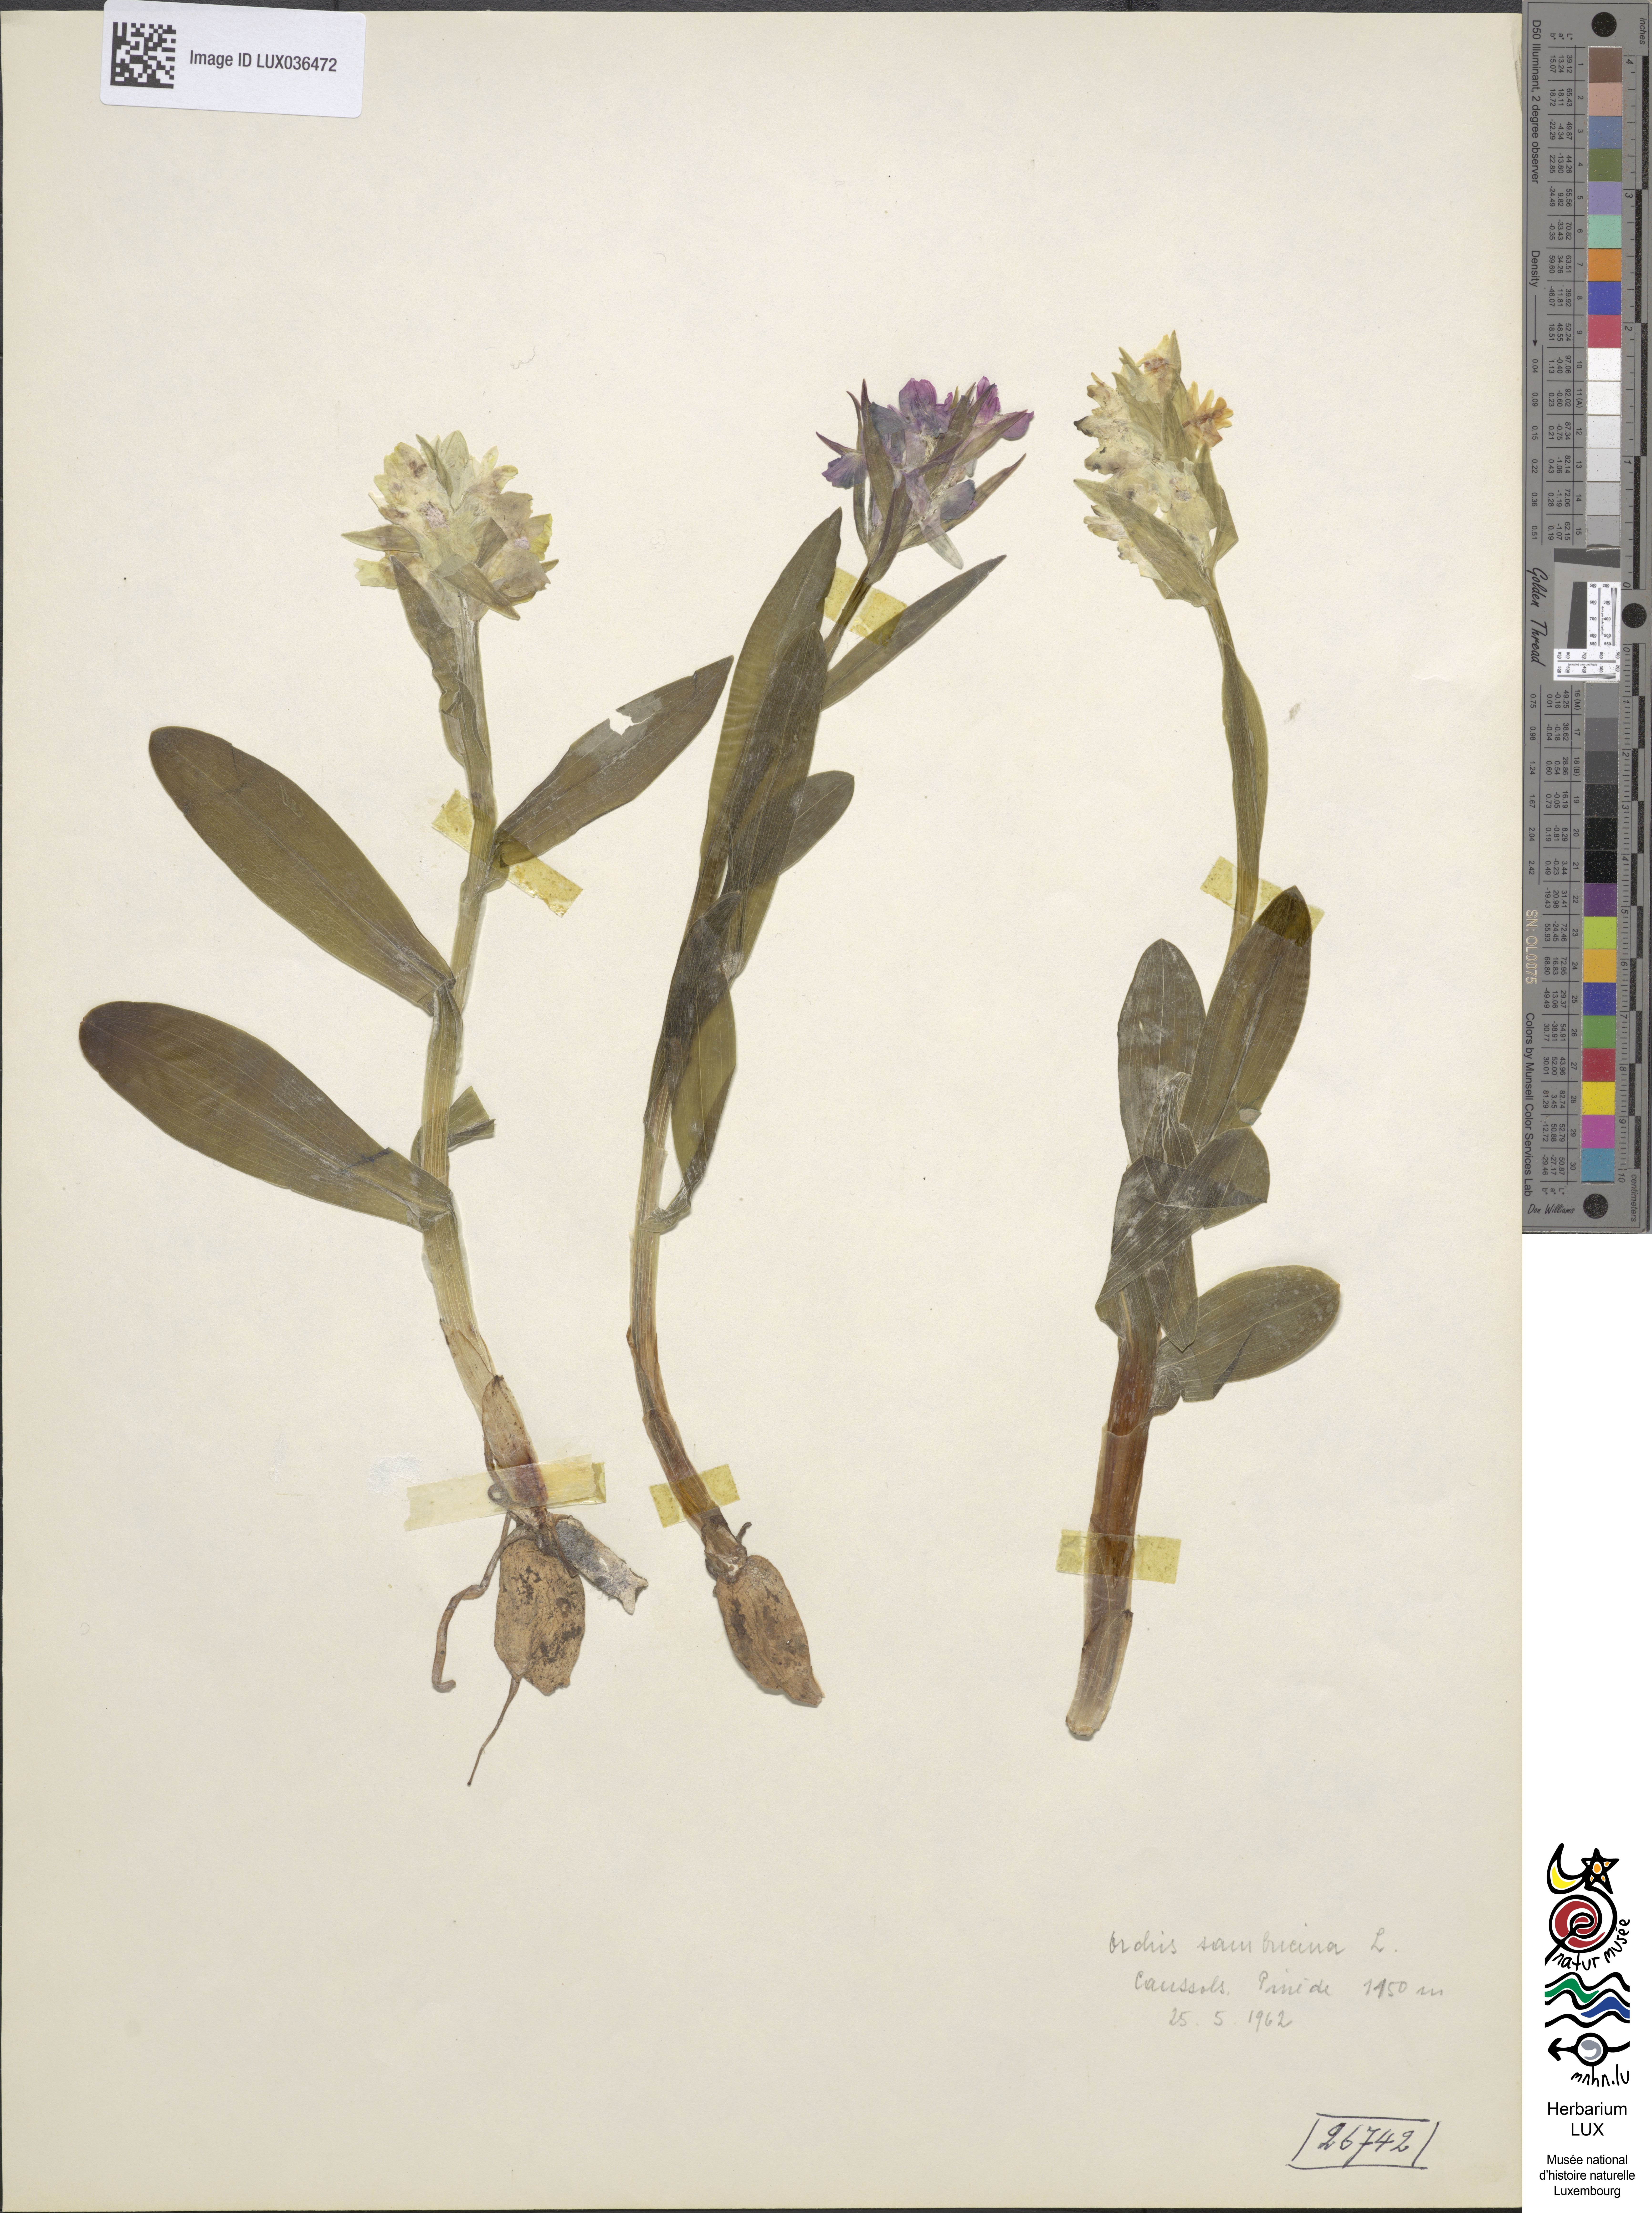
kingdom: Plantae
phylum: Tracheophyta
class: Liliopsida
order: Asparagales
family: Orchidaceae
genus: Dactylorhiza
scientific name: Dactylorhiza sambucina
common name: Elder-flowered orchid
